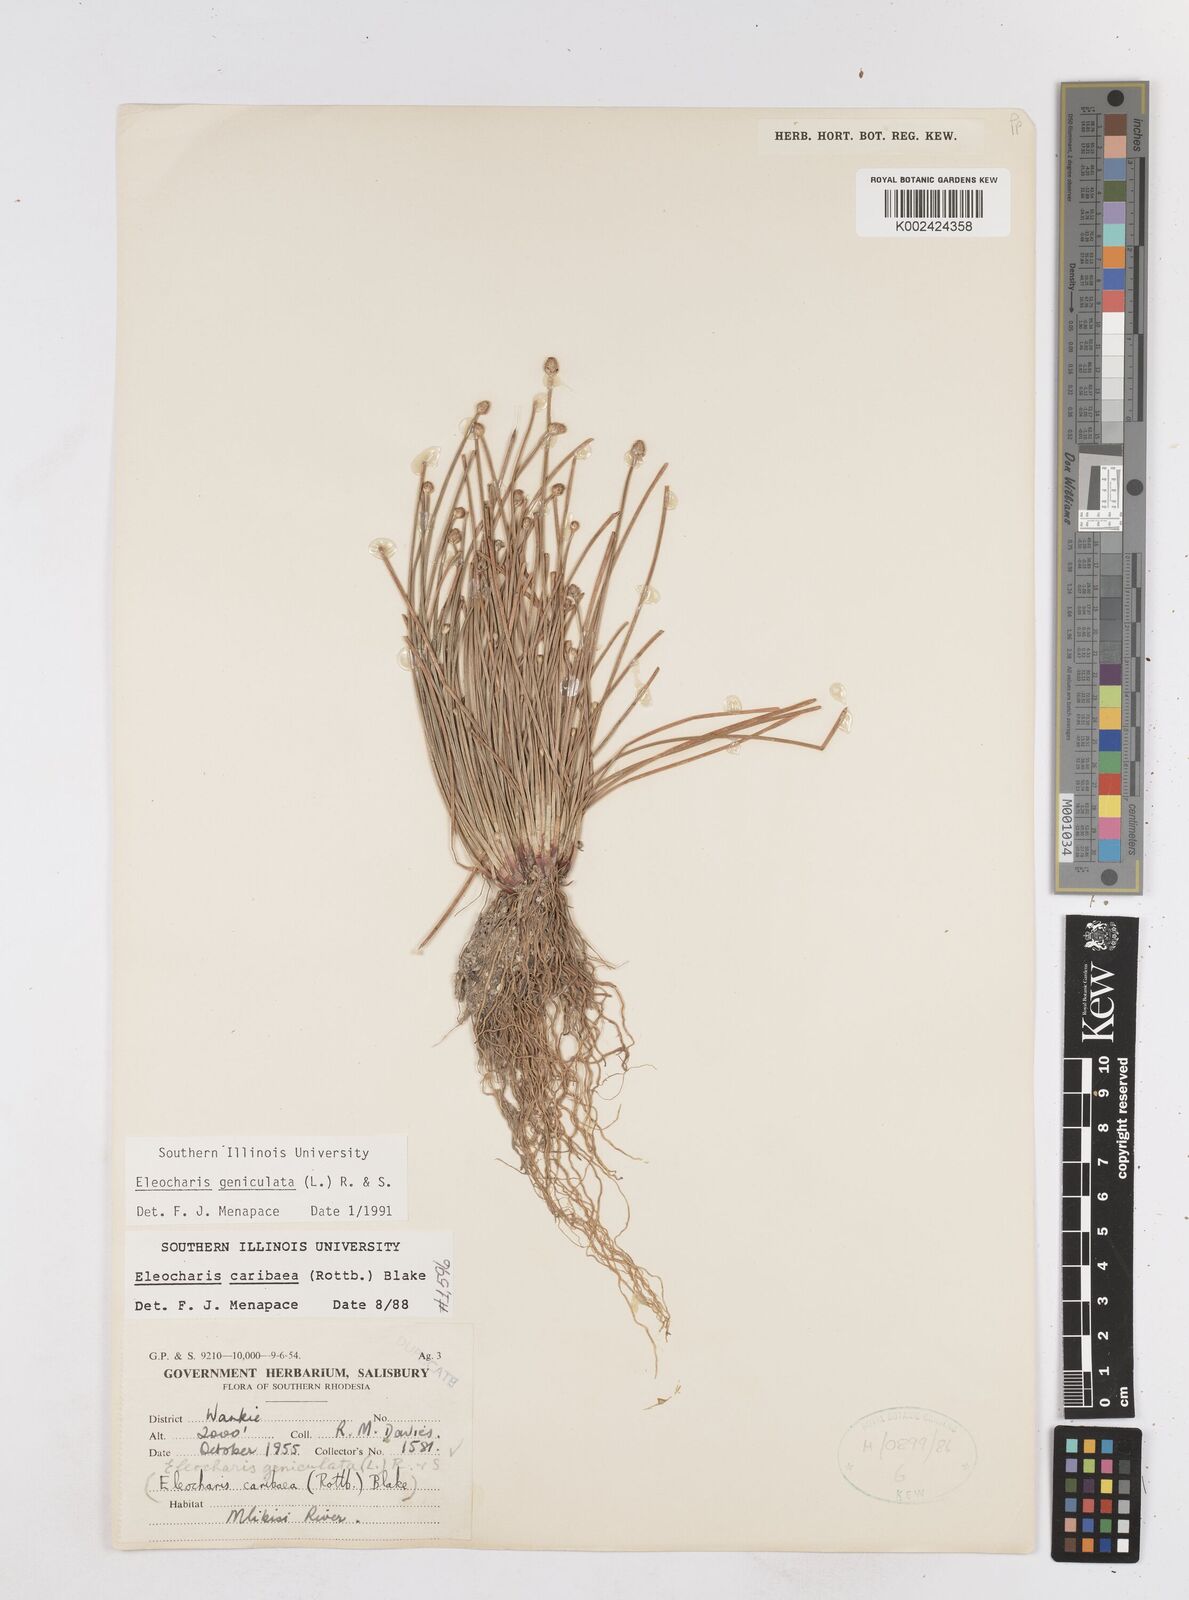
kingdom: Plantae
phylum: Tracheophyta
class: Liliopsida
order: Poales
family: Cyperaceae
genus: Eleocharis
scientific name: Eleocharis geniculata
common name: Canada spikesedge
